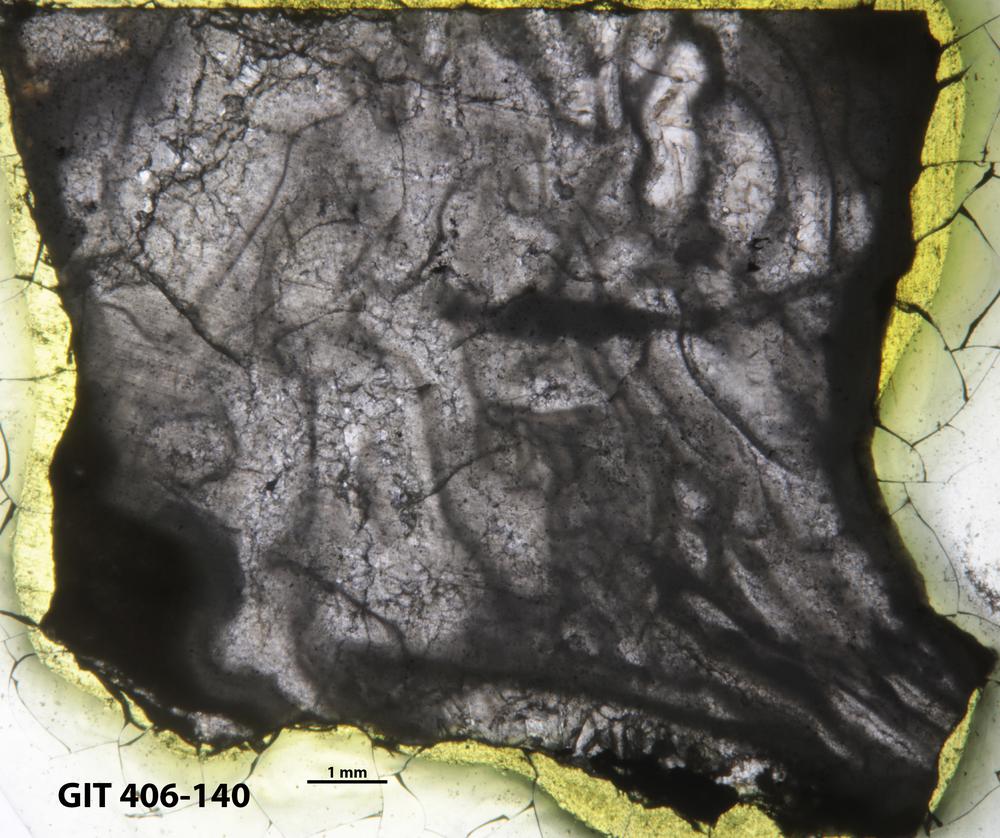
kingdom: Animalia
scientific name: Animalia
